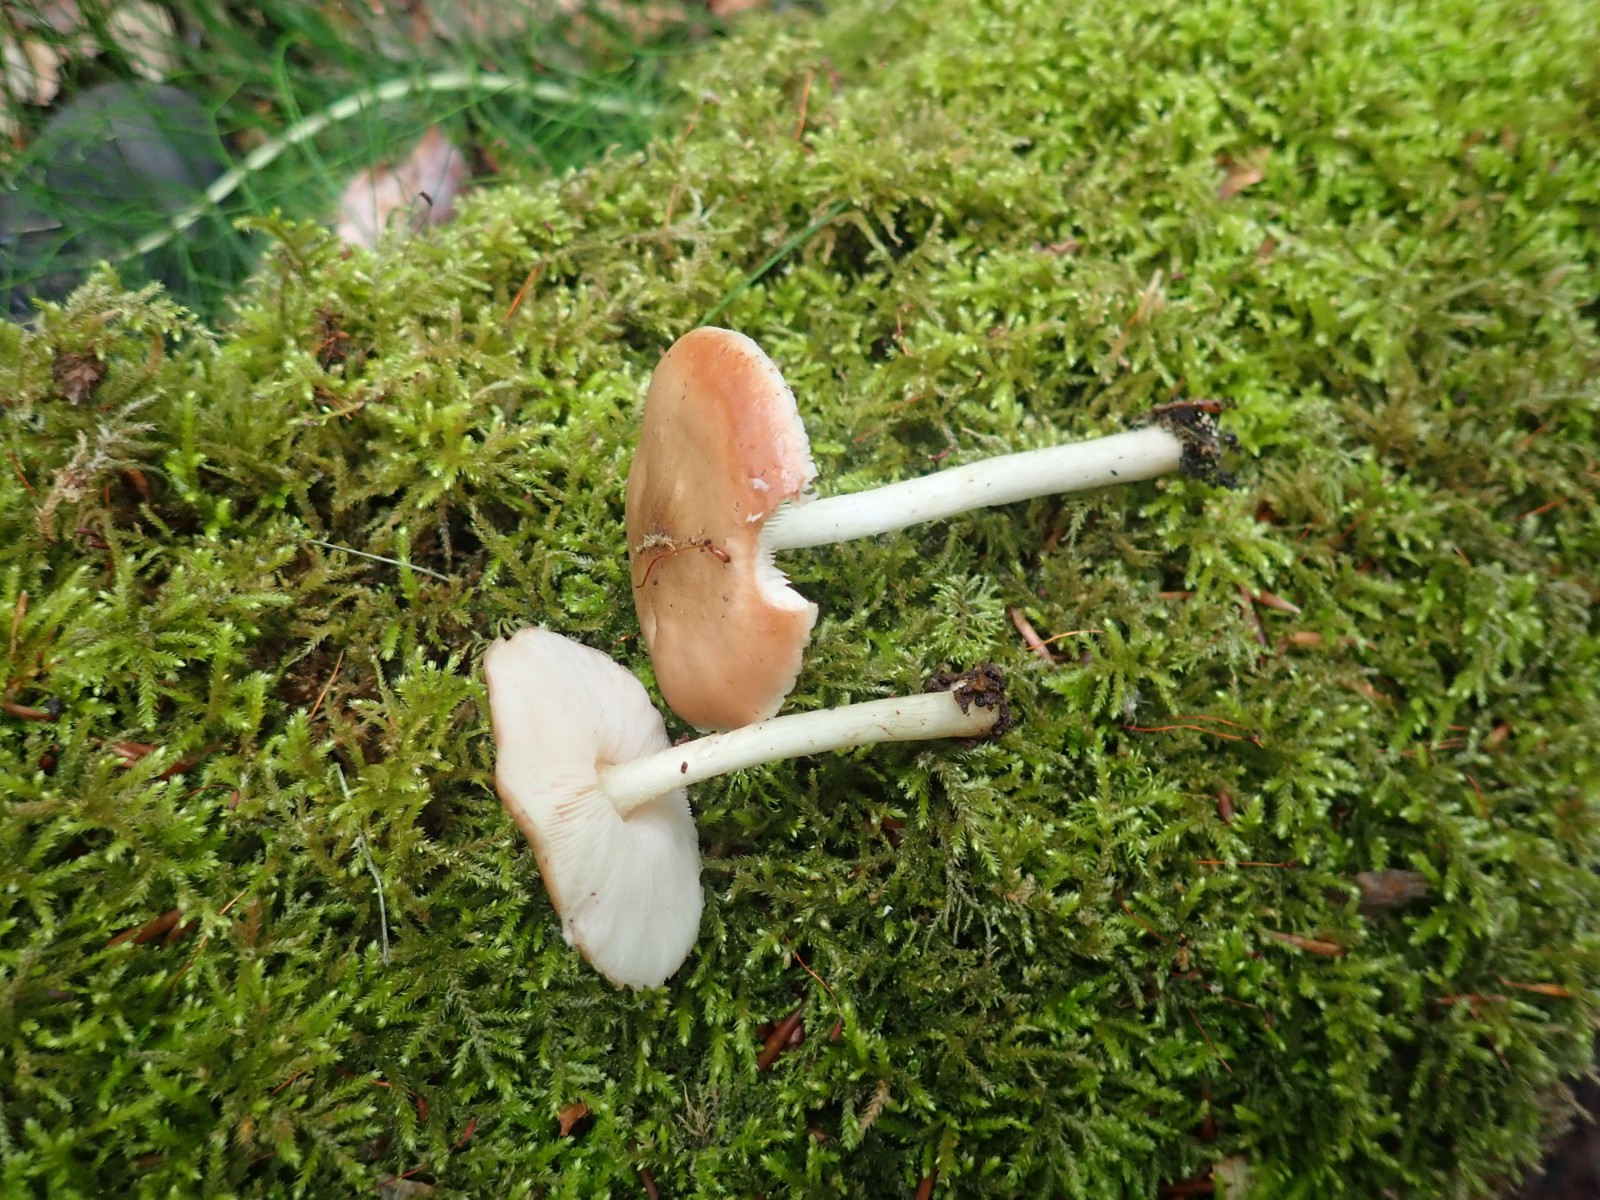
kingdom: Fungi
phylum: Basidiomycota
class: Agaricomycetes
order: Agaricales
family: Pluteaceae
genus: Pluteus
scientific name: Pluteus salicinus
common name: stiv skærmhat
